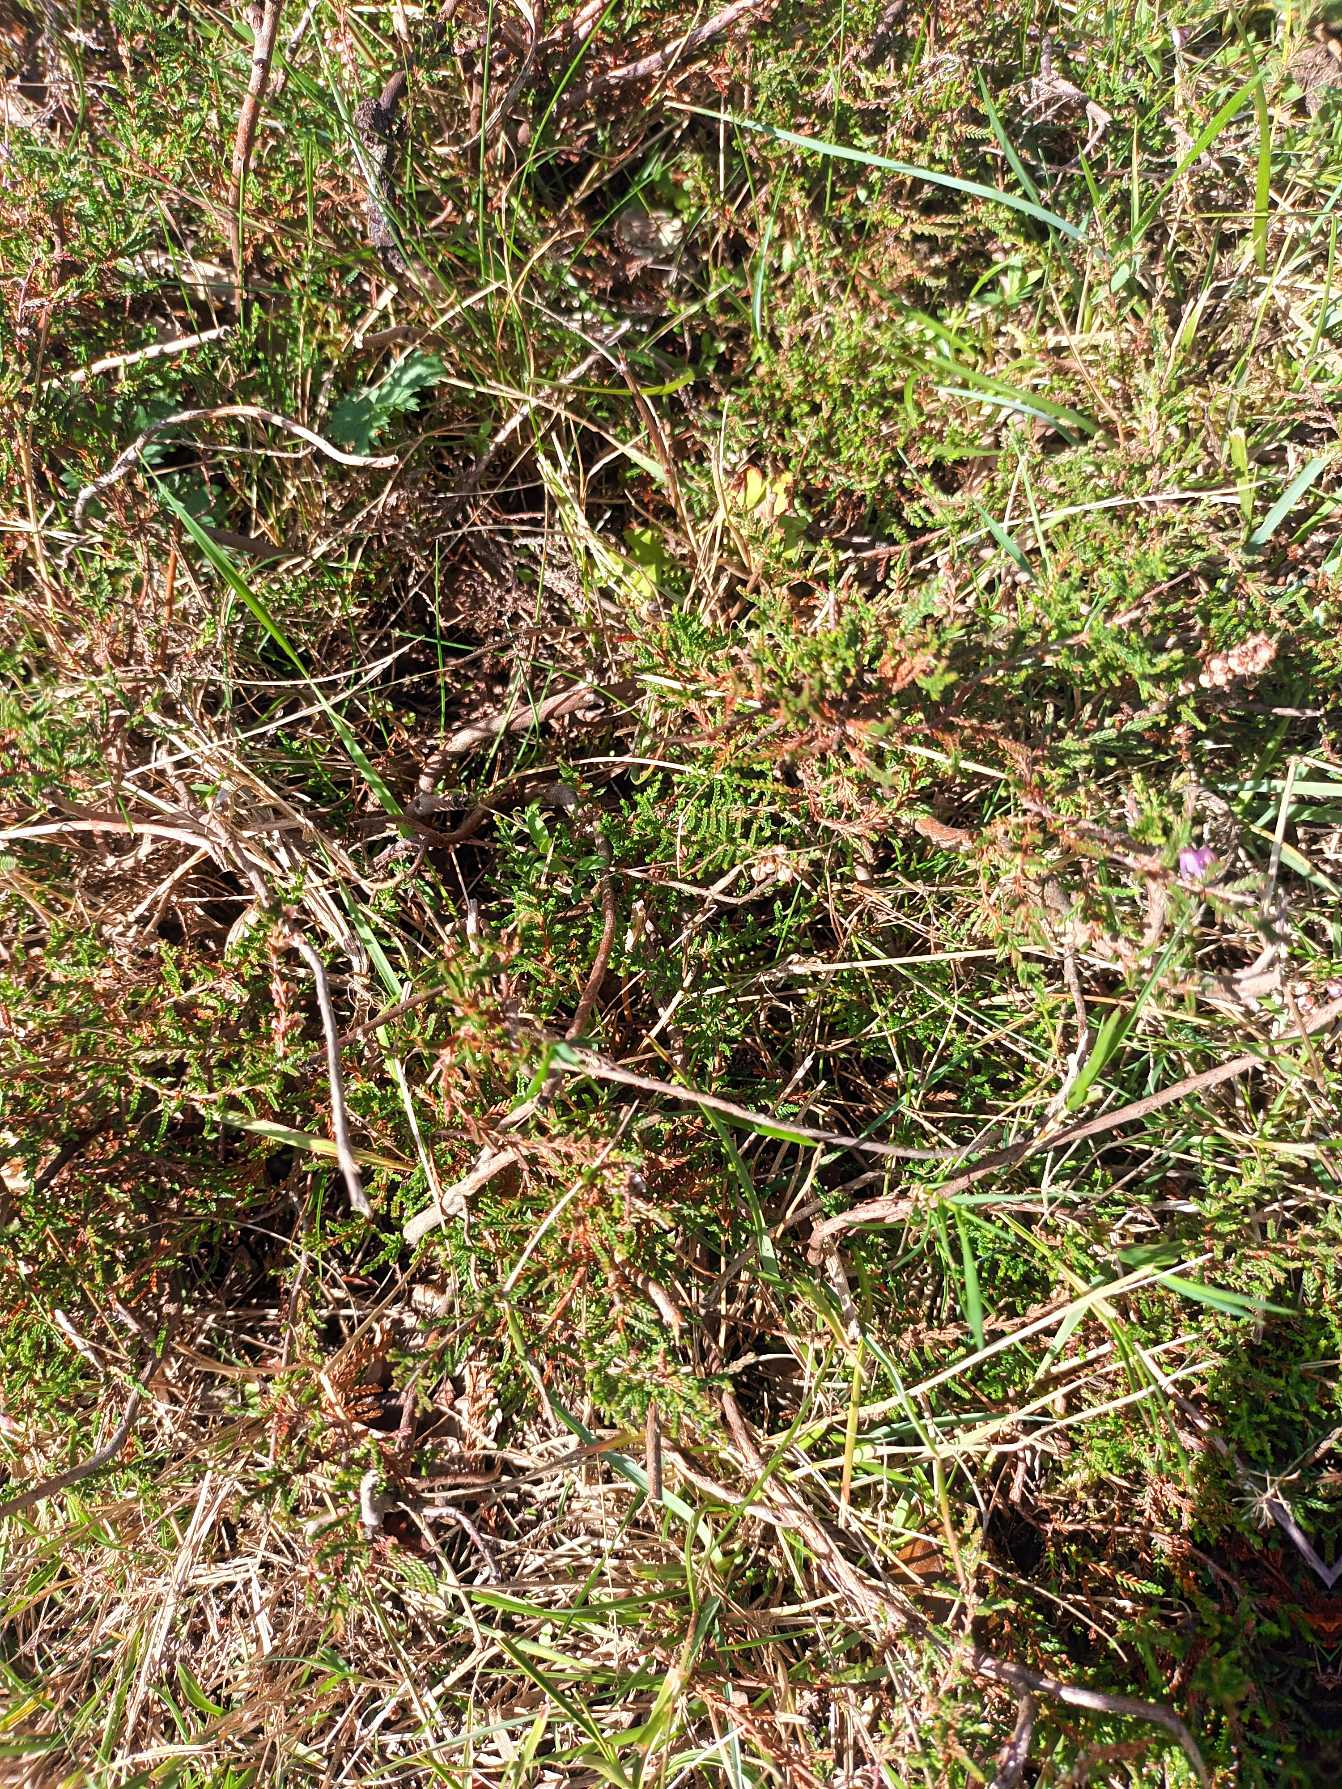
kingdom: Plantae
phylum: Tracheophyta
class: Magnoliopsida
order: Ericales
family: Ericaceae
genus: Calluna
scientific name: Calluna vulgaris
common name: Hedelyng
